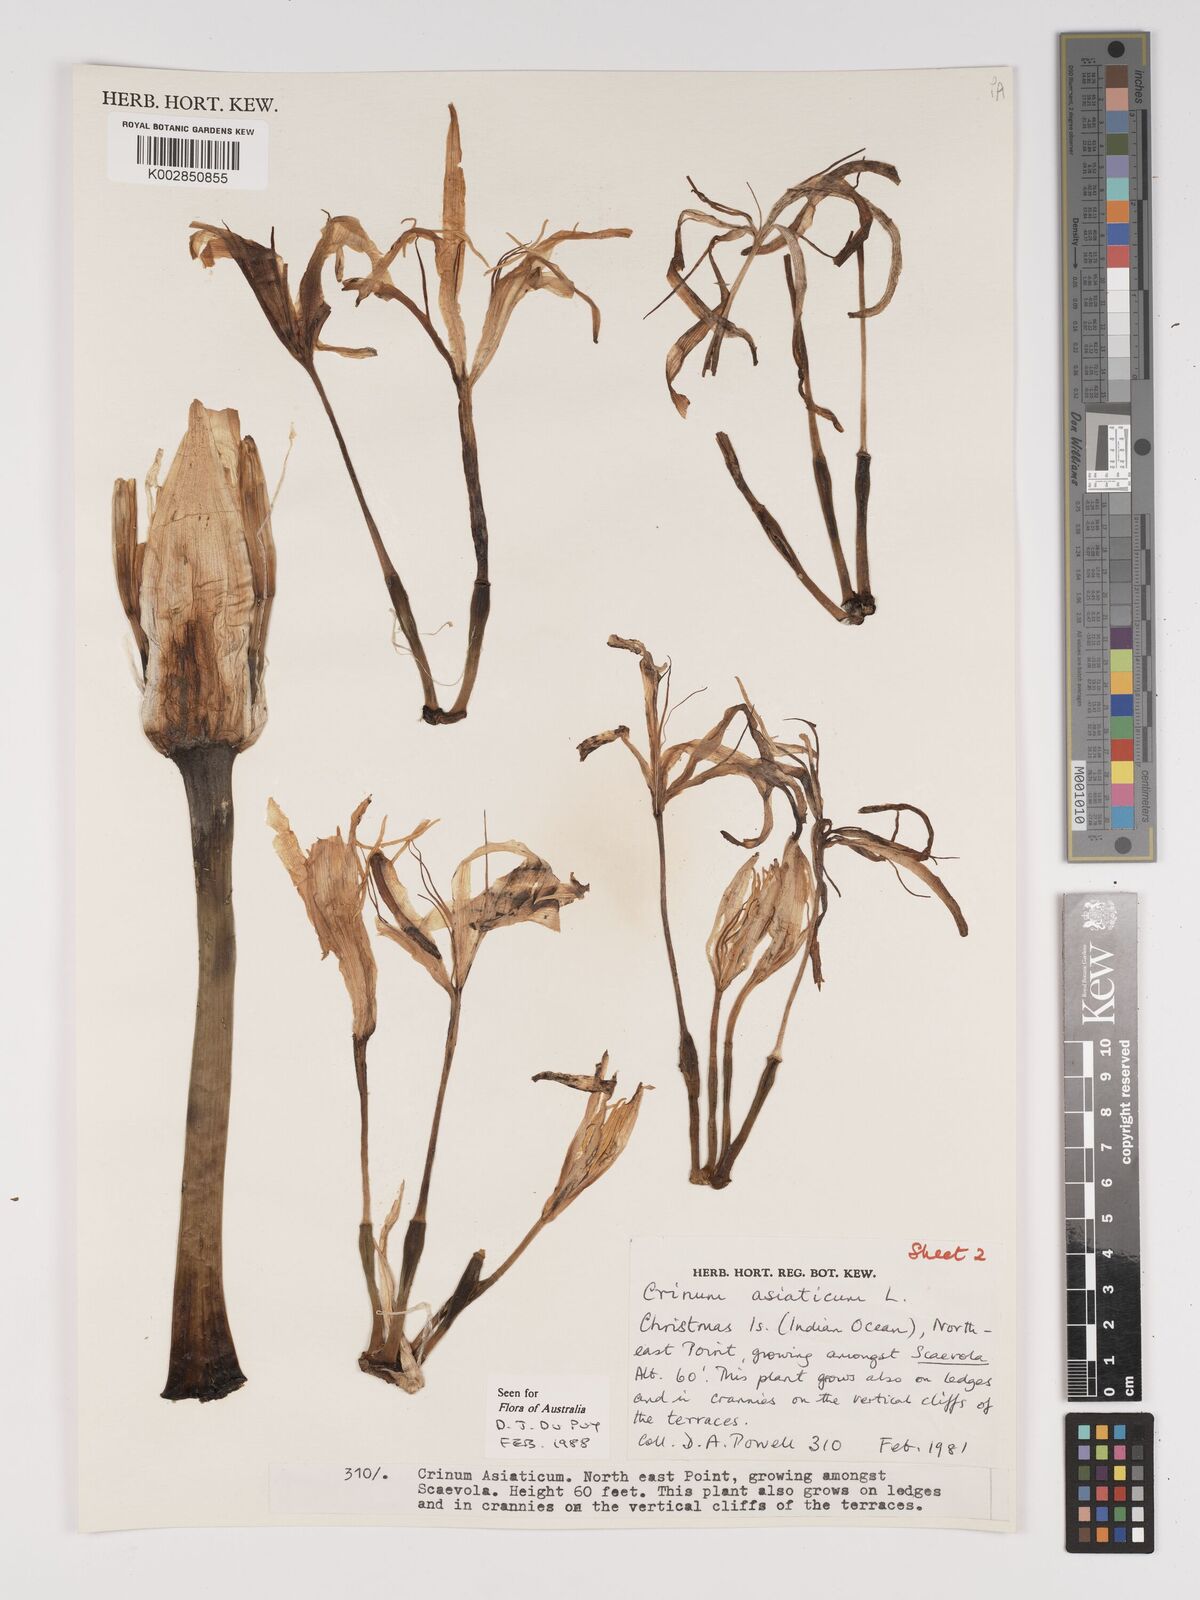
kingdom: Plantae
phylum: Tracheophyta
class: Liliopsida
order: Asparagales
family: Amaryllidaceae
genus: Crinum
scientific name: Crinum asiaticum
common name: Poisonbulb
